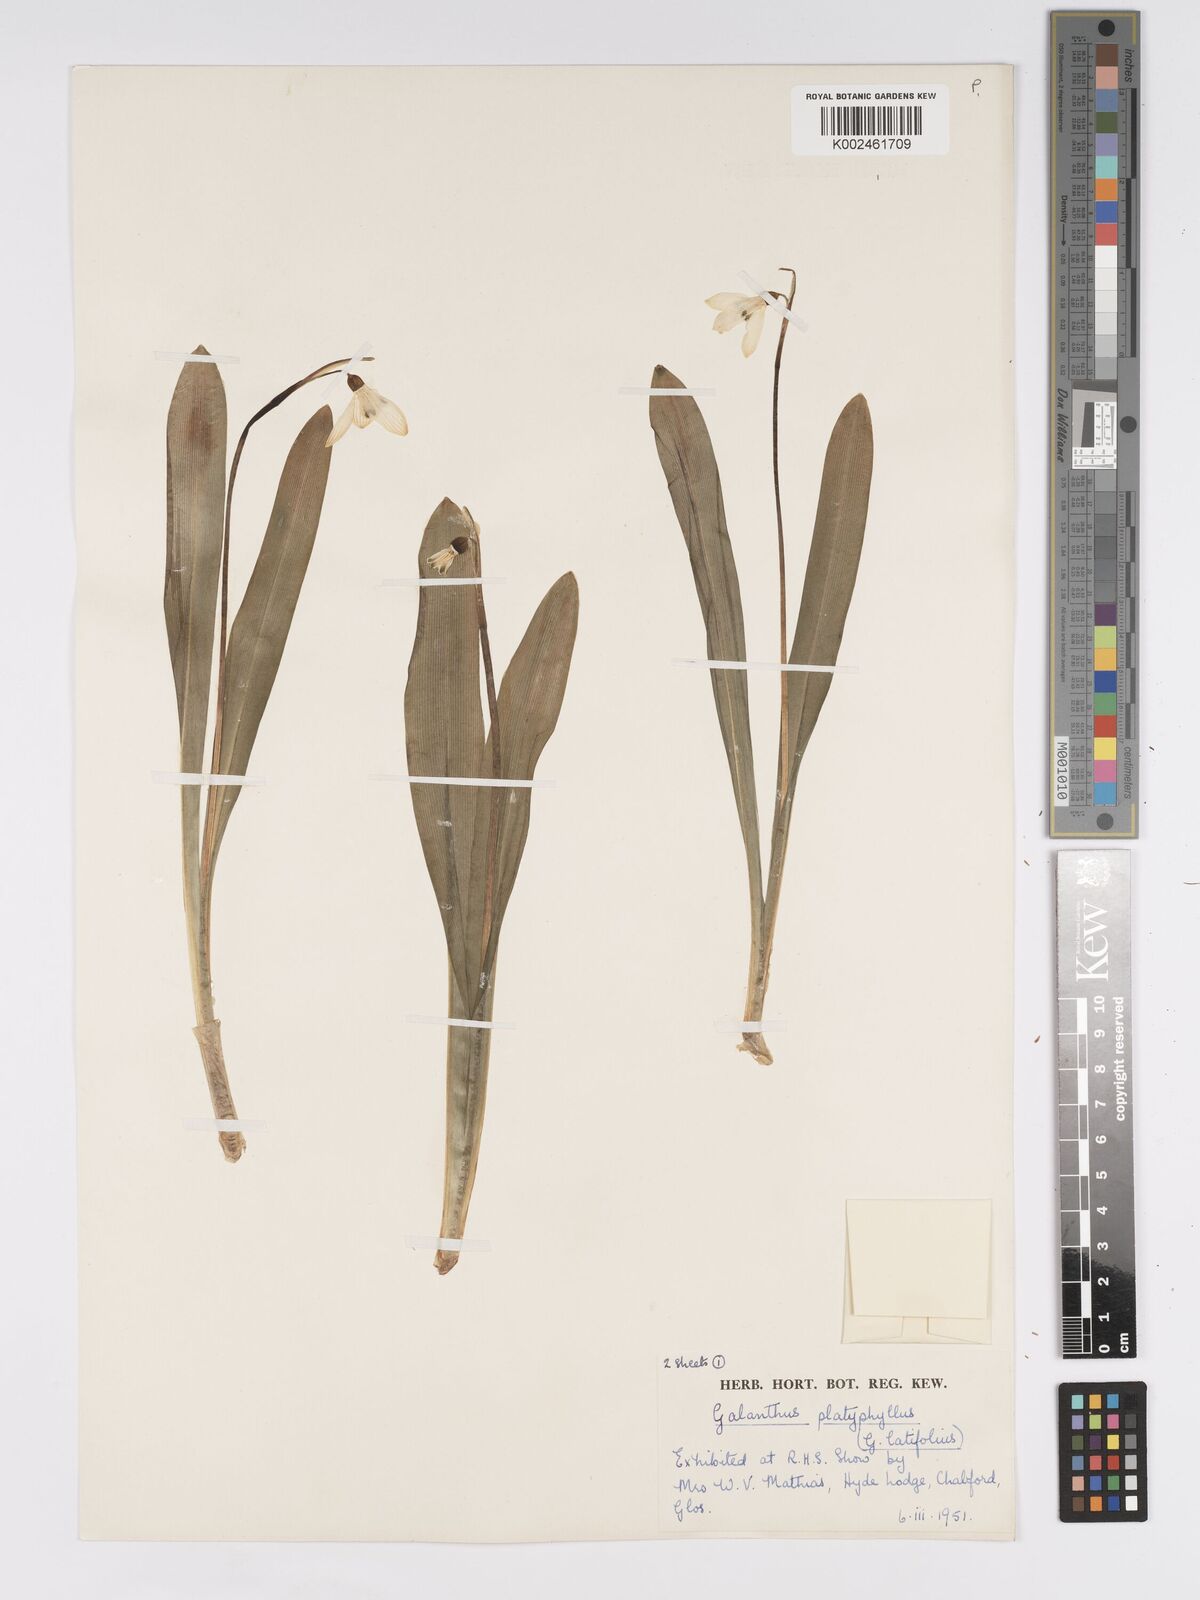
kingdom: Plantae
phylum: Tracheophyta
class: Liliopsida
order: Asparagales
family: Amaryllidaceae
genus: Galanthus
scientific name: Galanthus platyphyllus
